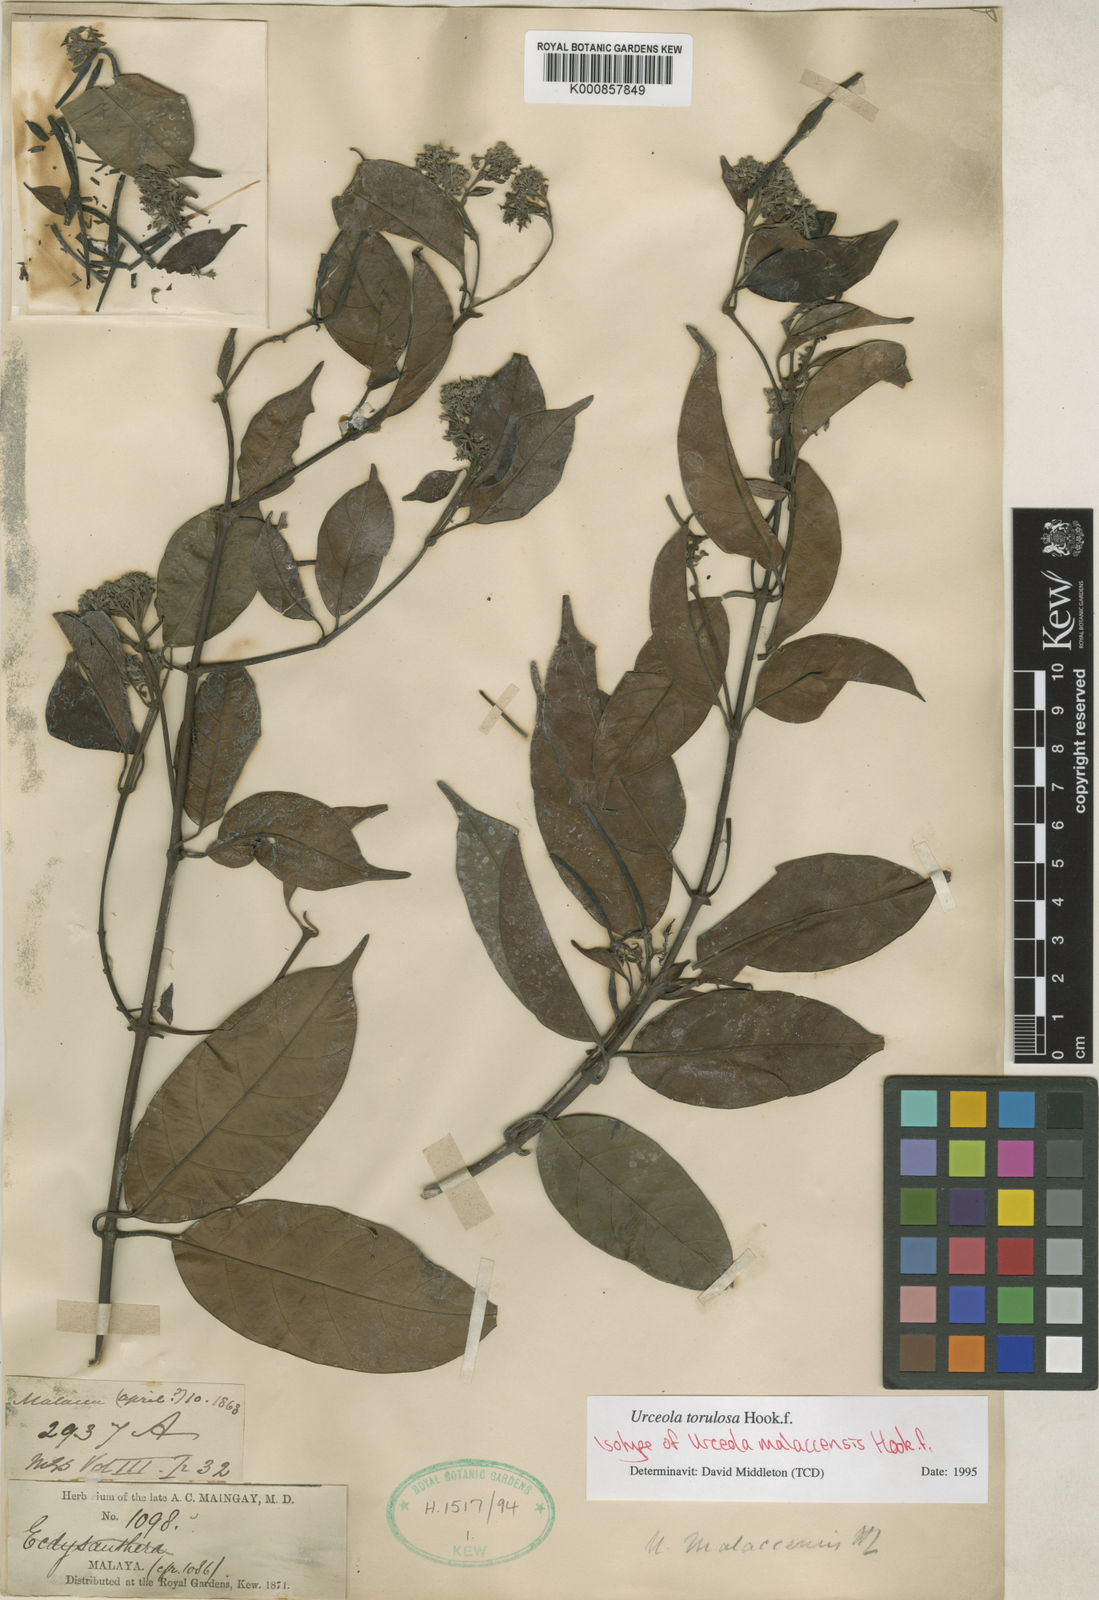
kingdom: Plantae
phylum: Tracheophyta
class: Magnoliopsida
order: Gentianales
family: Apocynaceae
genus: Urceola
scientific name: Urceola torulosa
